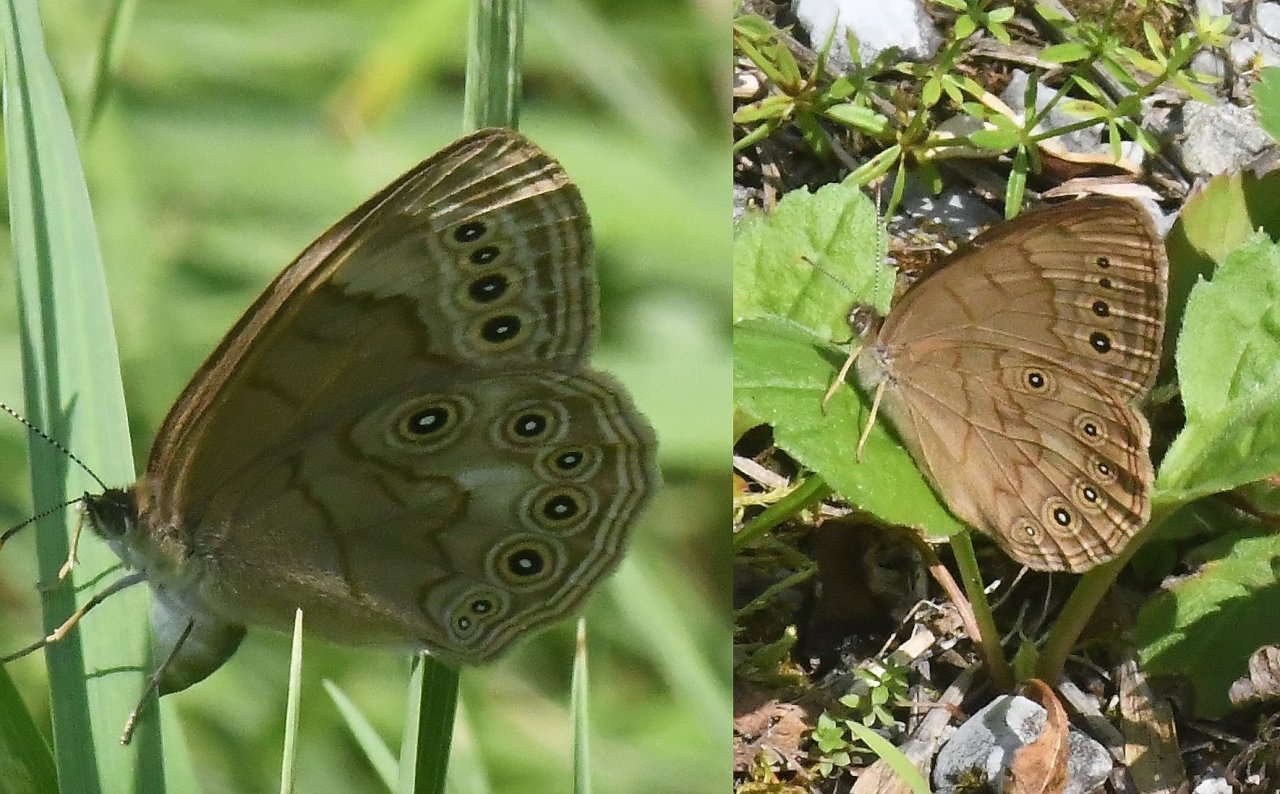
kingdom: Animalia
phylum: Arthropoda
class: Insecta
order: Lepidoptera
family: Nymphalidae
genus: Lethe
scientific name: Lethe eurydice
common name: Eyed Brown
